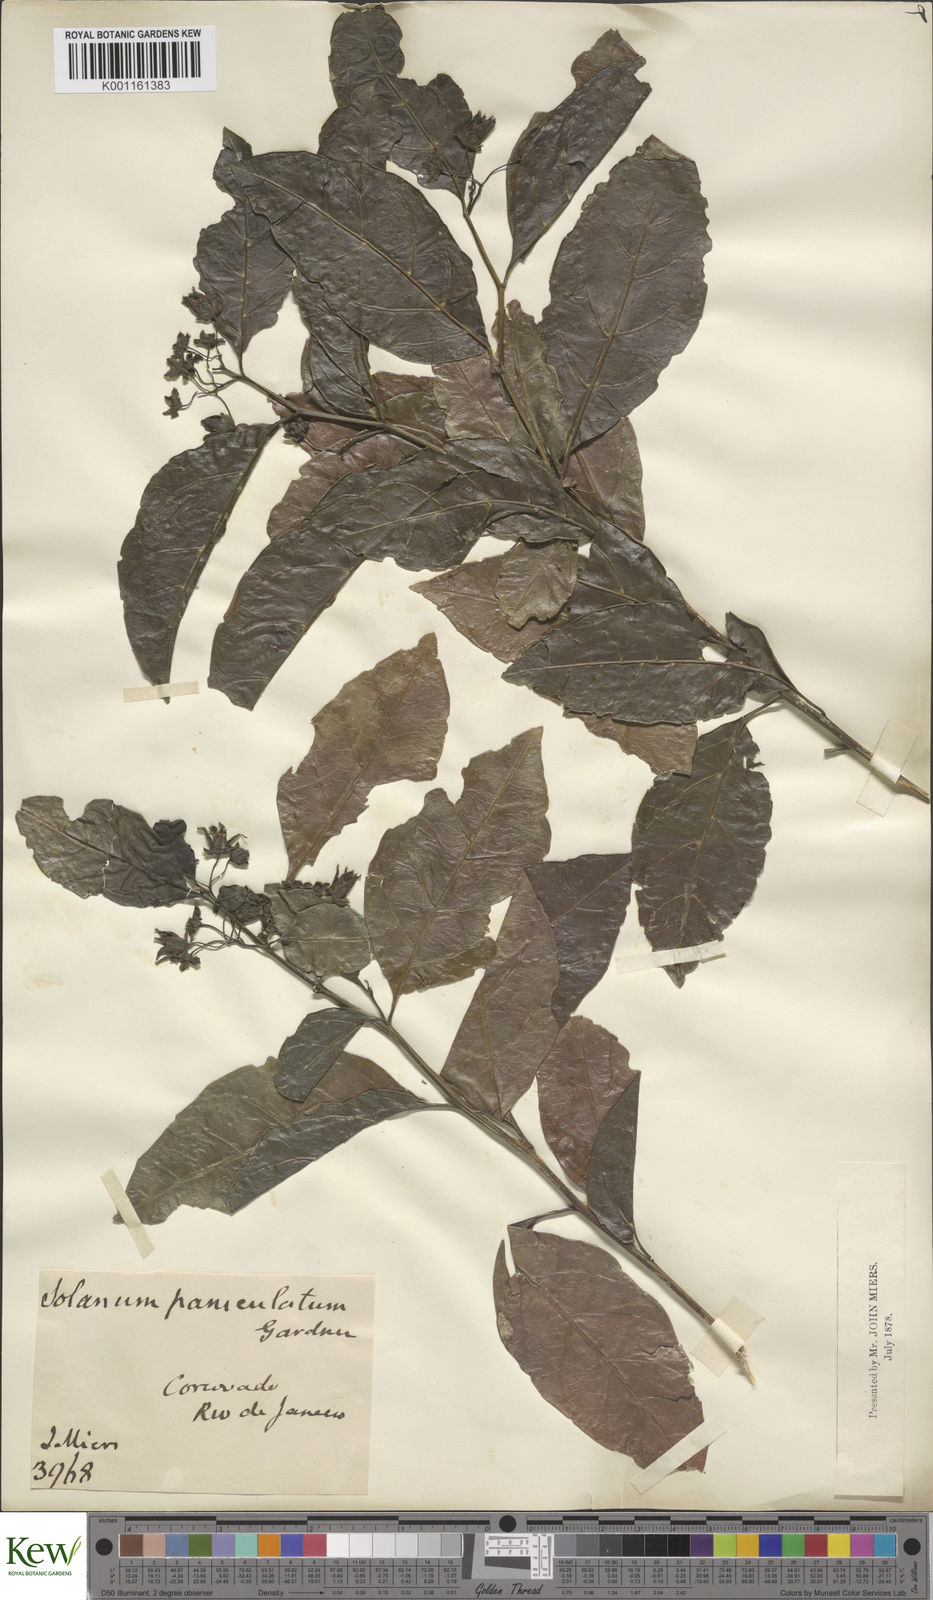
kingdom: Plantae
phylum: Tracheophyta
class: Magnoliopsida
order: Solanales
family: Solanaceae
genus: Solanum
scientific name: Solanum caavurana
